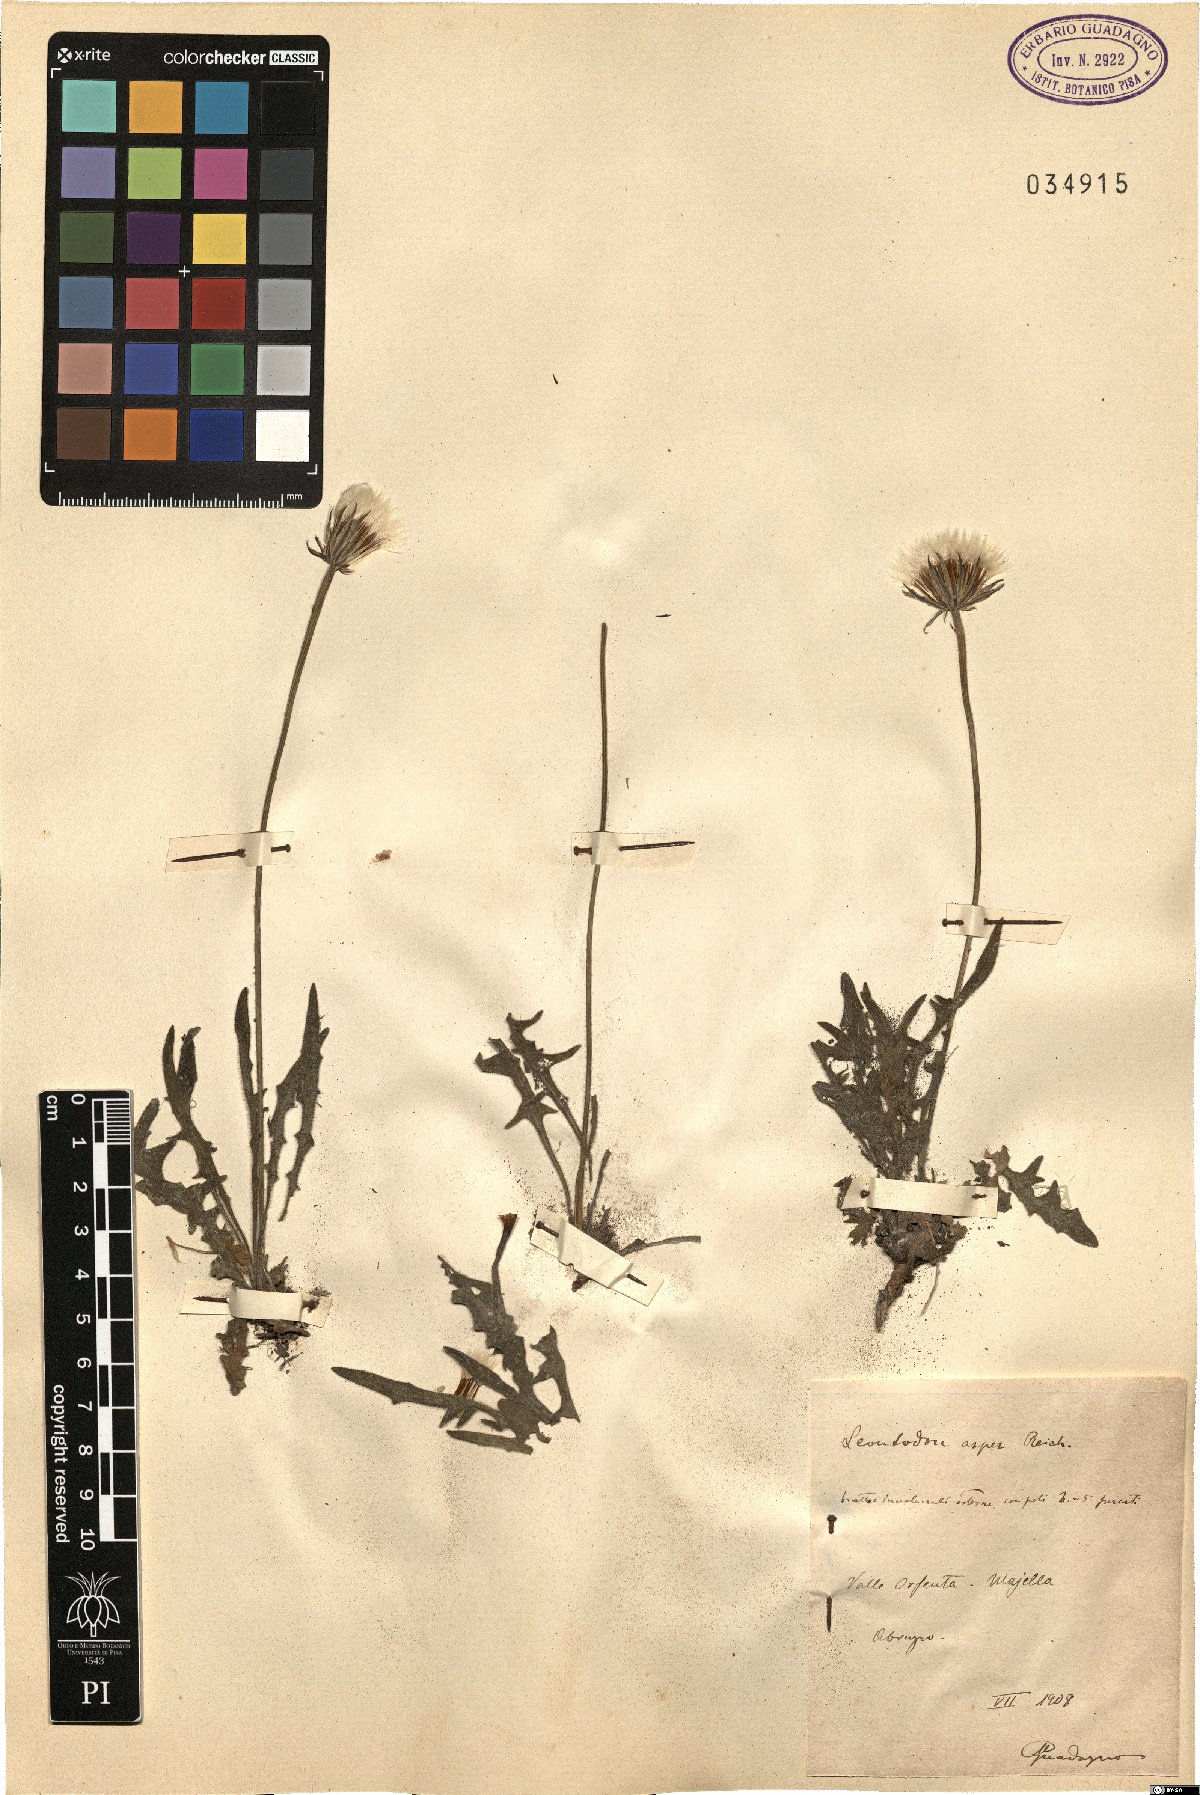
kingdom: Plantae
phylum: Tracheophyta
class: Magnoliopsida
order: Asterales
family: Asteraceae
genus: Leontodon
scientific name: Leontodon biscutellifolius
